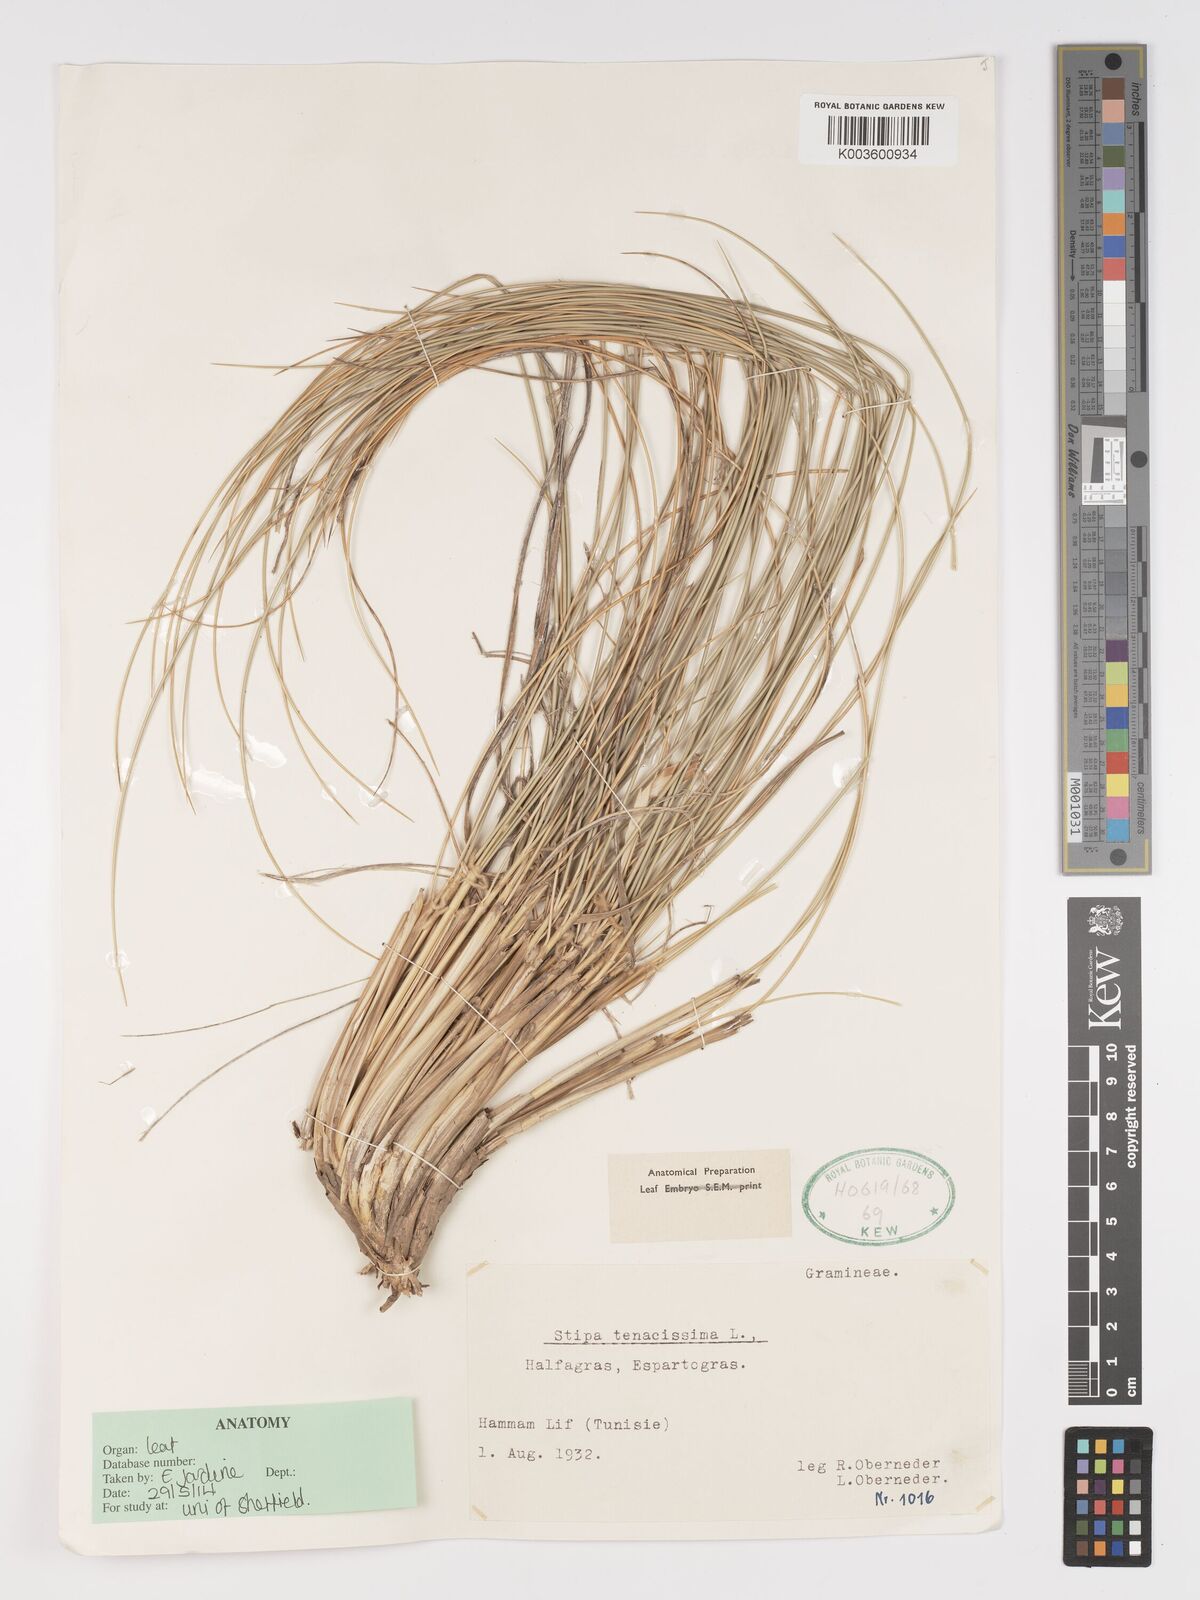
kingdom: Plantae
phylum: Tracheophyta
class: Liliopsida
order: Poales
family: Poaceae
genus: Macrochloa
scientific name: Macrochloa tenacissima
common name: Alfa grass
